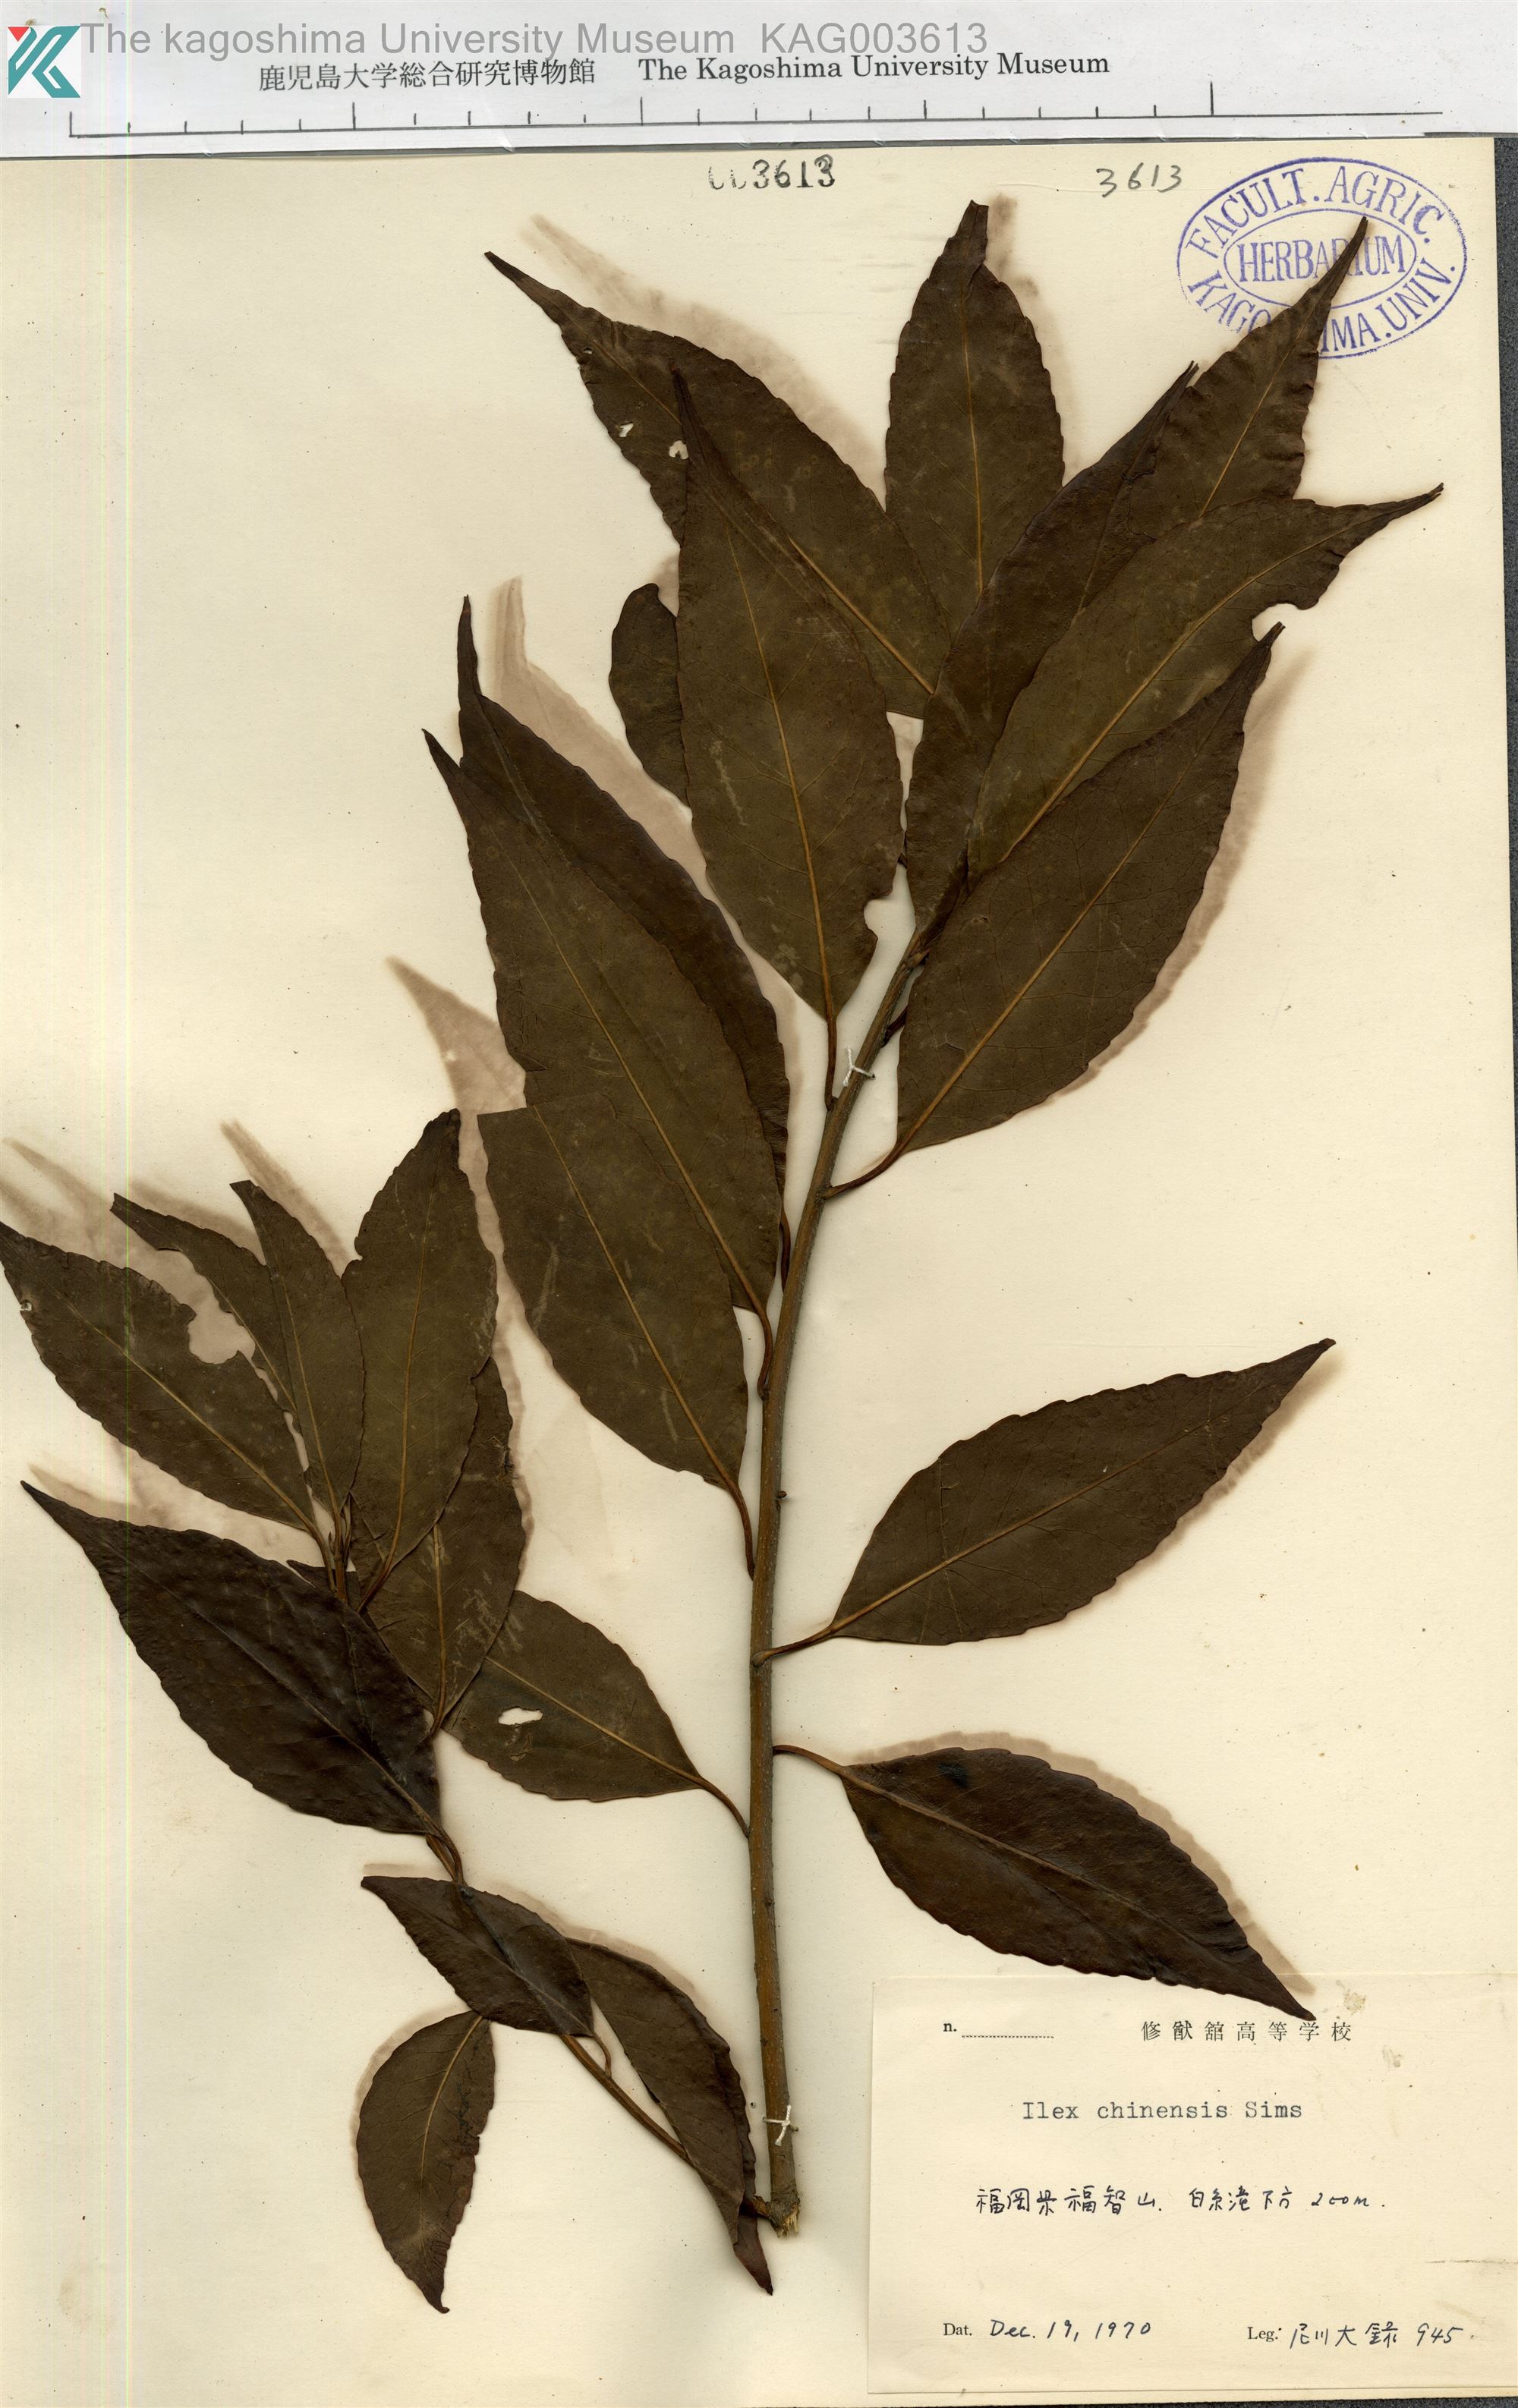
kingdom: Plantae
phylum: Tracheophyta
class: Magnoliopsida
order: Aquifoliales
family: Aquifoliaceae
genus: Ilex
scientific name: Ilex chinensis
